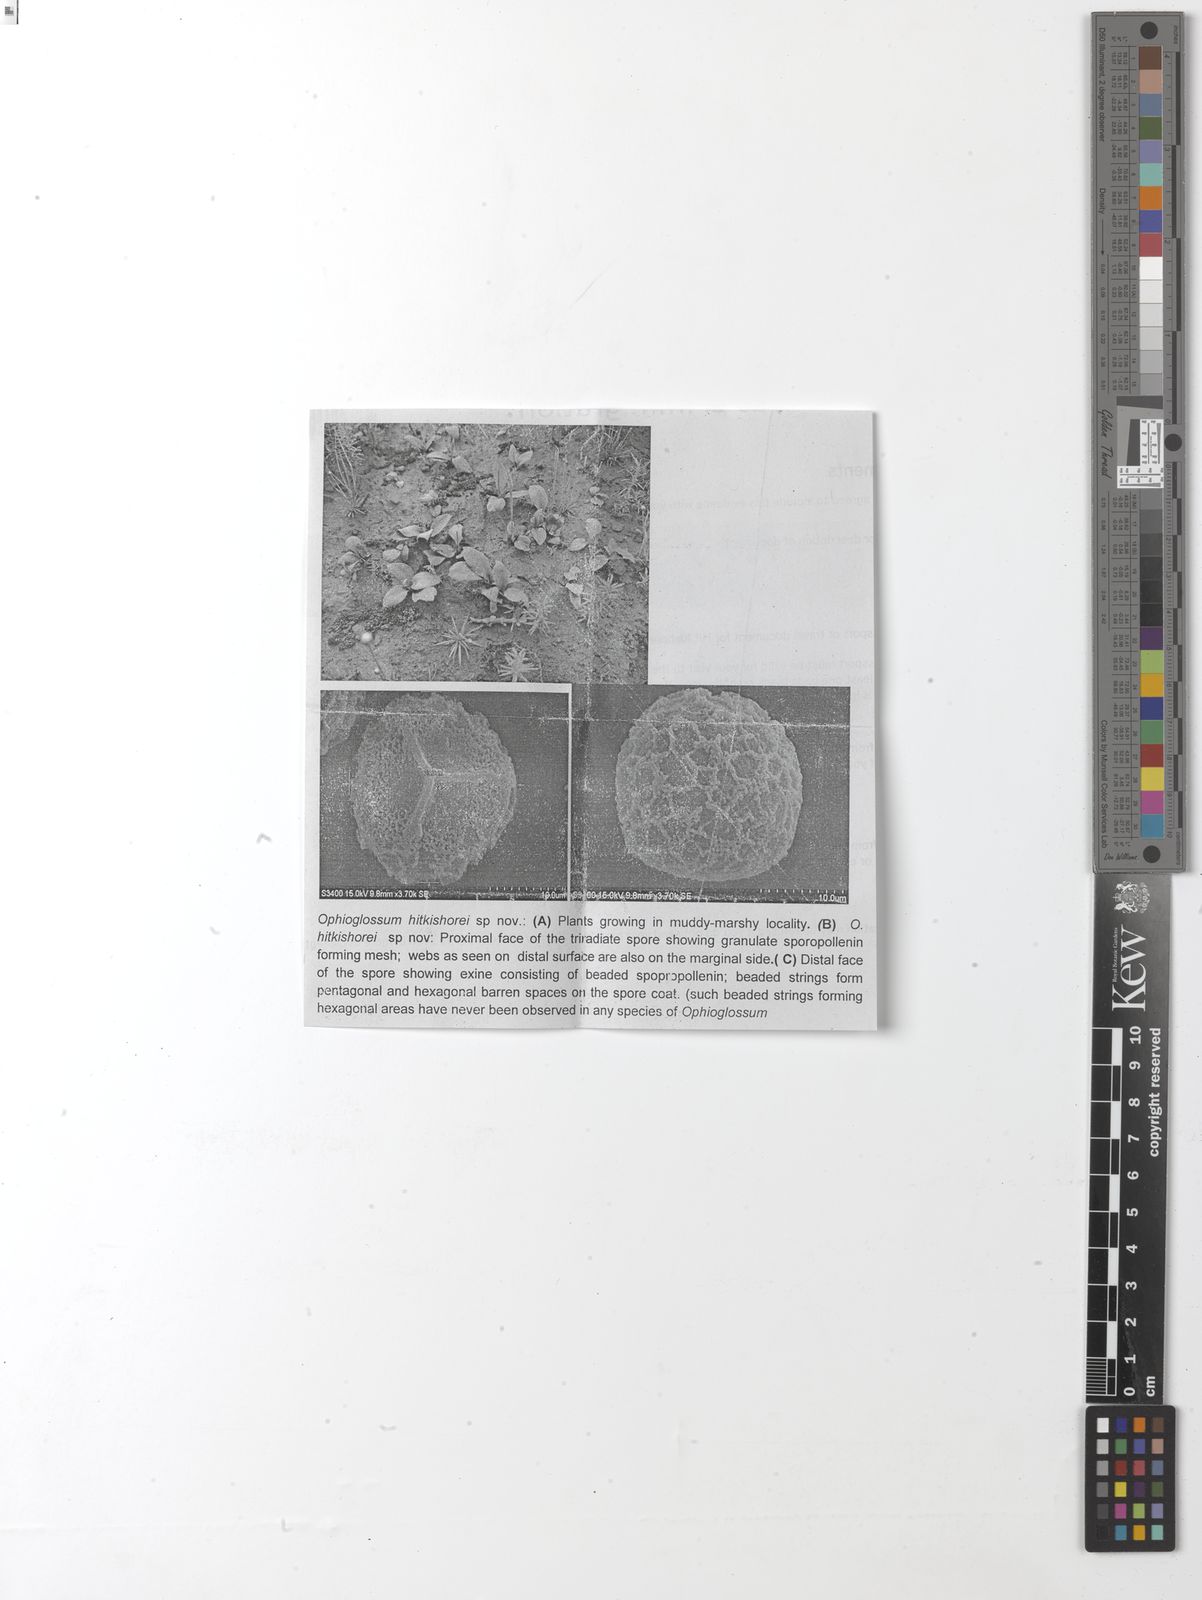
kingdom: Plantae
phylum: Tracheophyta
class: Polypodiopsida
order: Ophioglossales
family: Ophioglossaceae
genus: Ophioglossum
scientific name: Ophioglossum costatum
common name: Large adder's tongue
